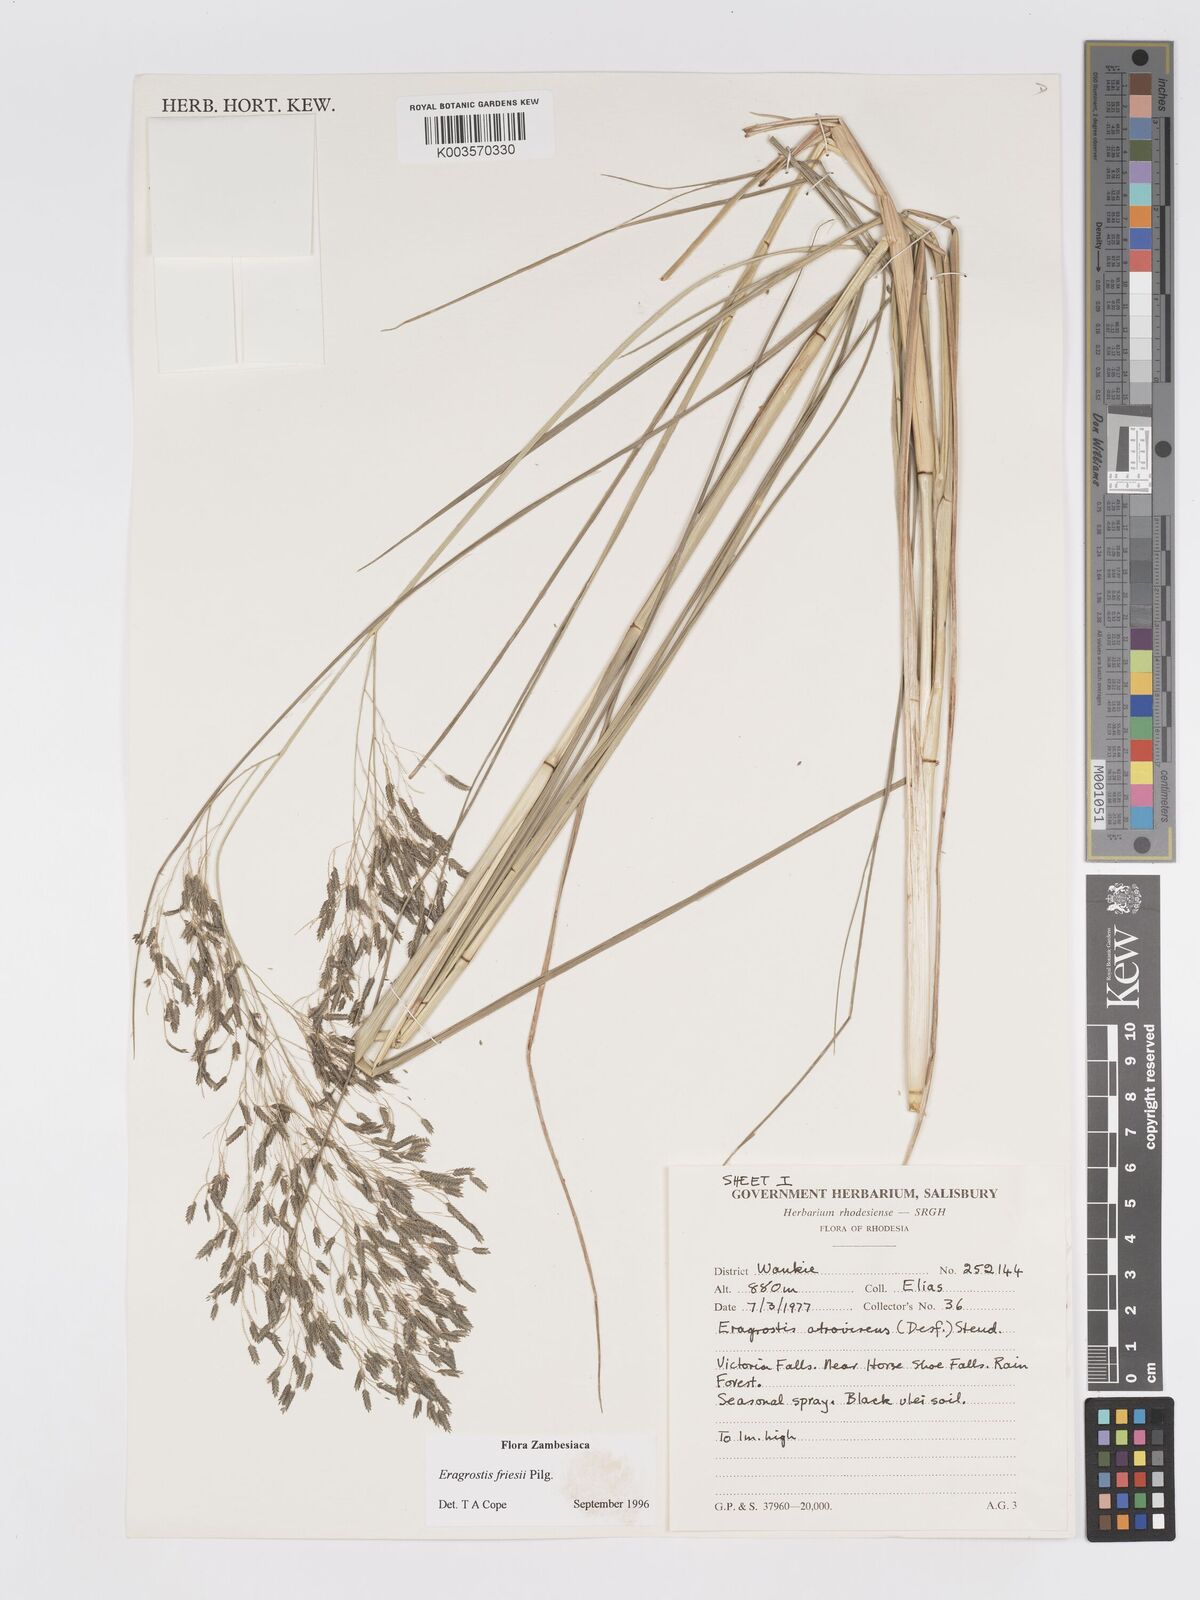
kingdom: Plantae
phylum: Tracheophyta
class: Liliopsida
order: Poales
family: Poaceae
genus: Eragrostis
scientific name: Eragrostis friesii
